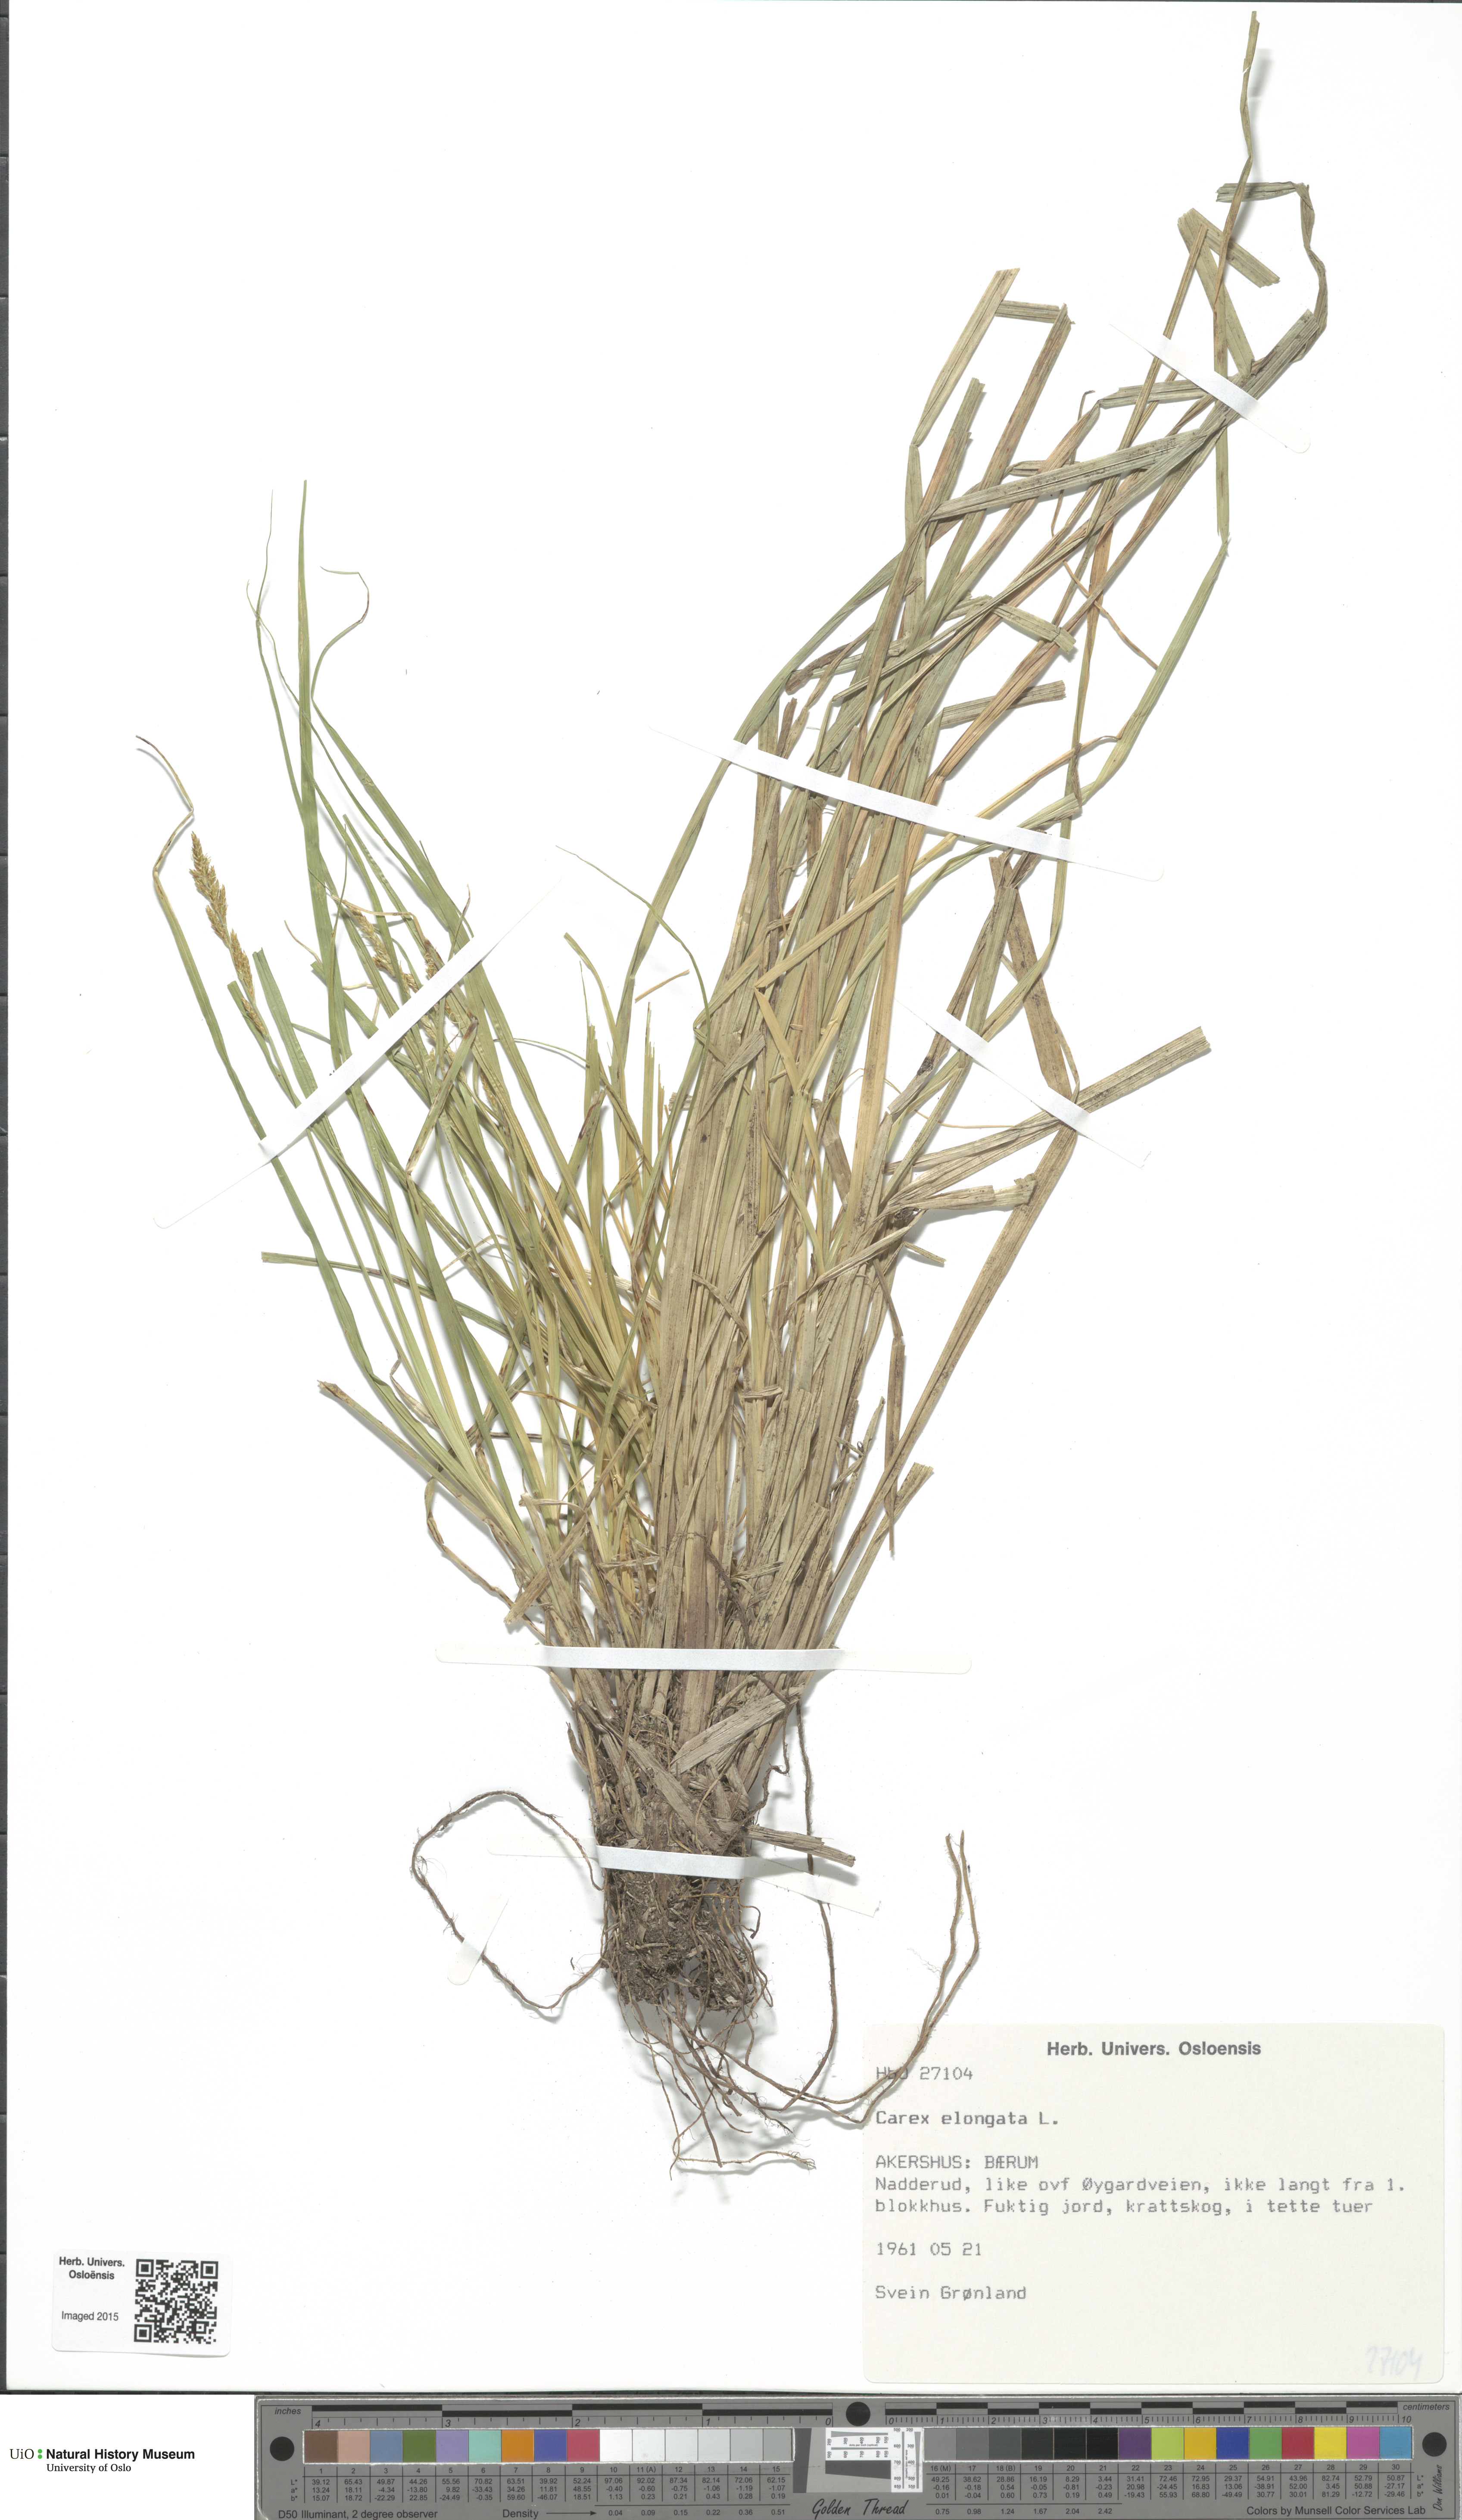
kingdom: Plantae
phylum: Tracheophyta
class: Liliopsida
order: Poales
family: Cyperaceae
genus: Carex
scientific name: Carex elongata
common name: Elongated sedge
